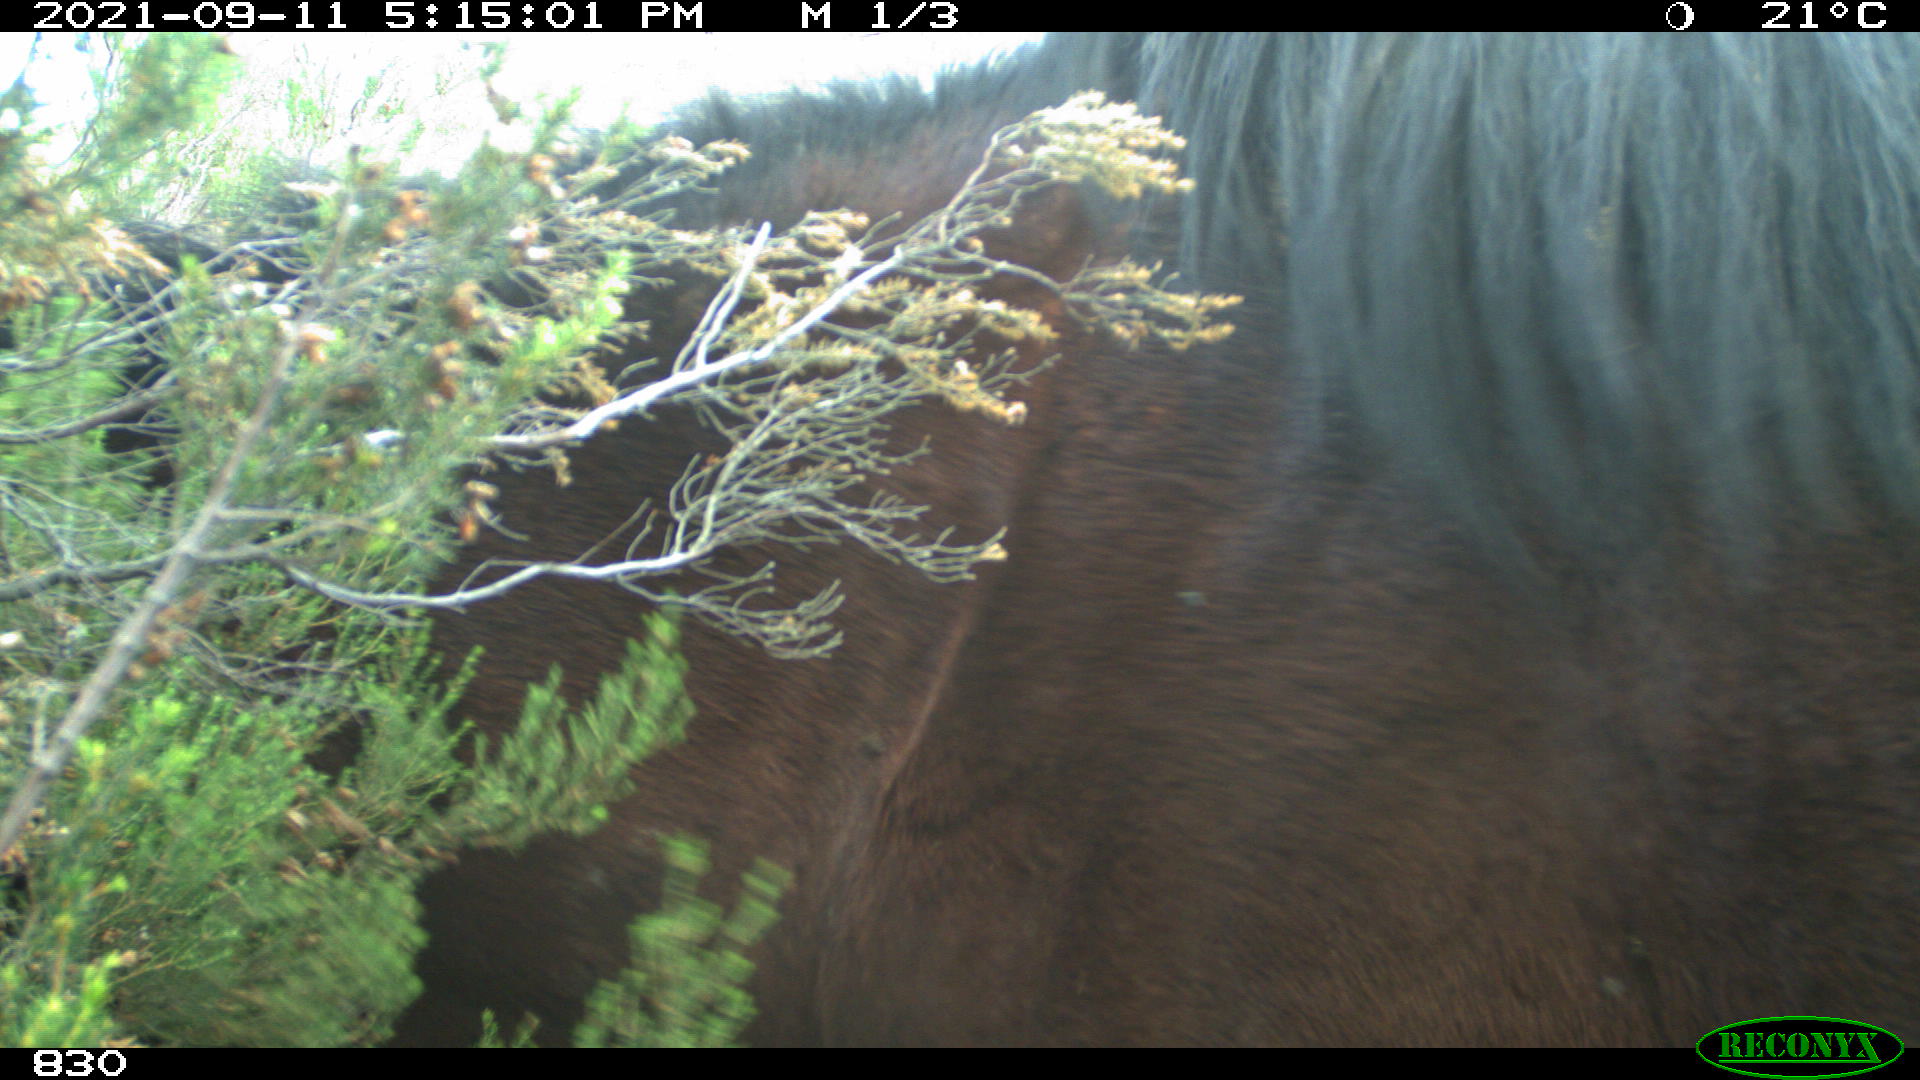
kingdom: Animalia
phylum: Chordata
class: Mammalia
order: Perissodactyla
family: Equidae
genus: Equus
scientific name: Equus caballus
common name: Horse
